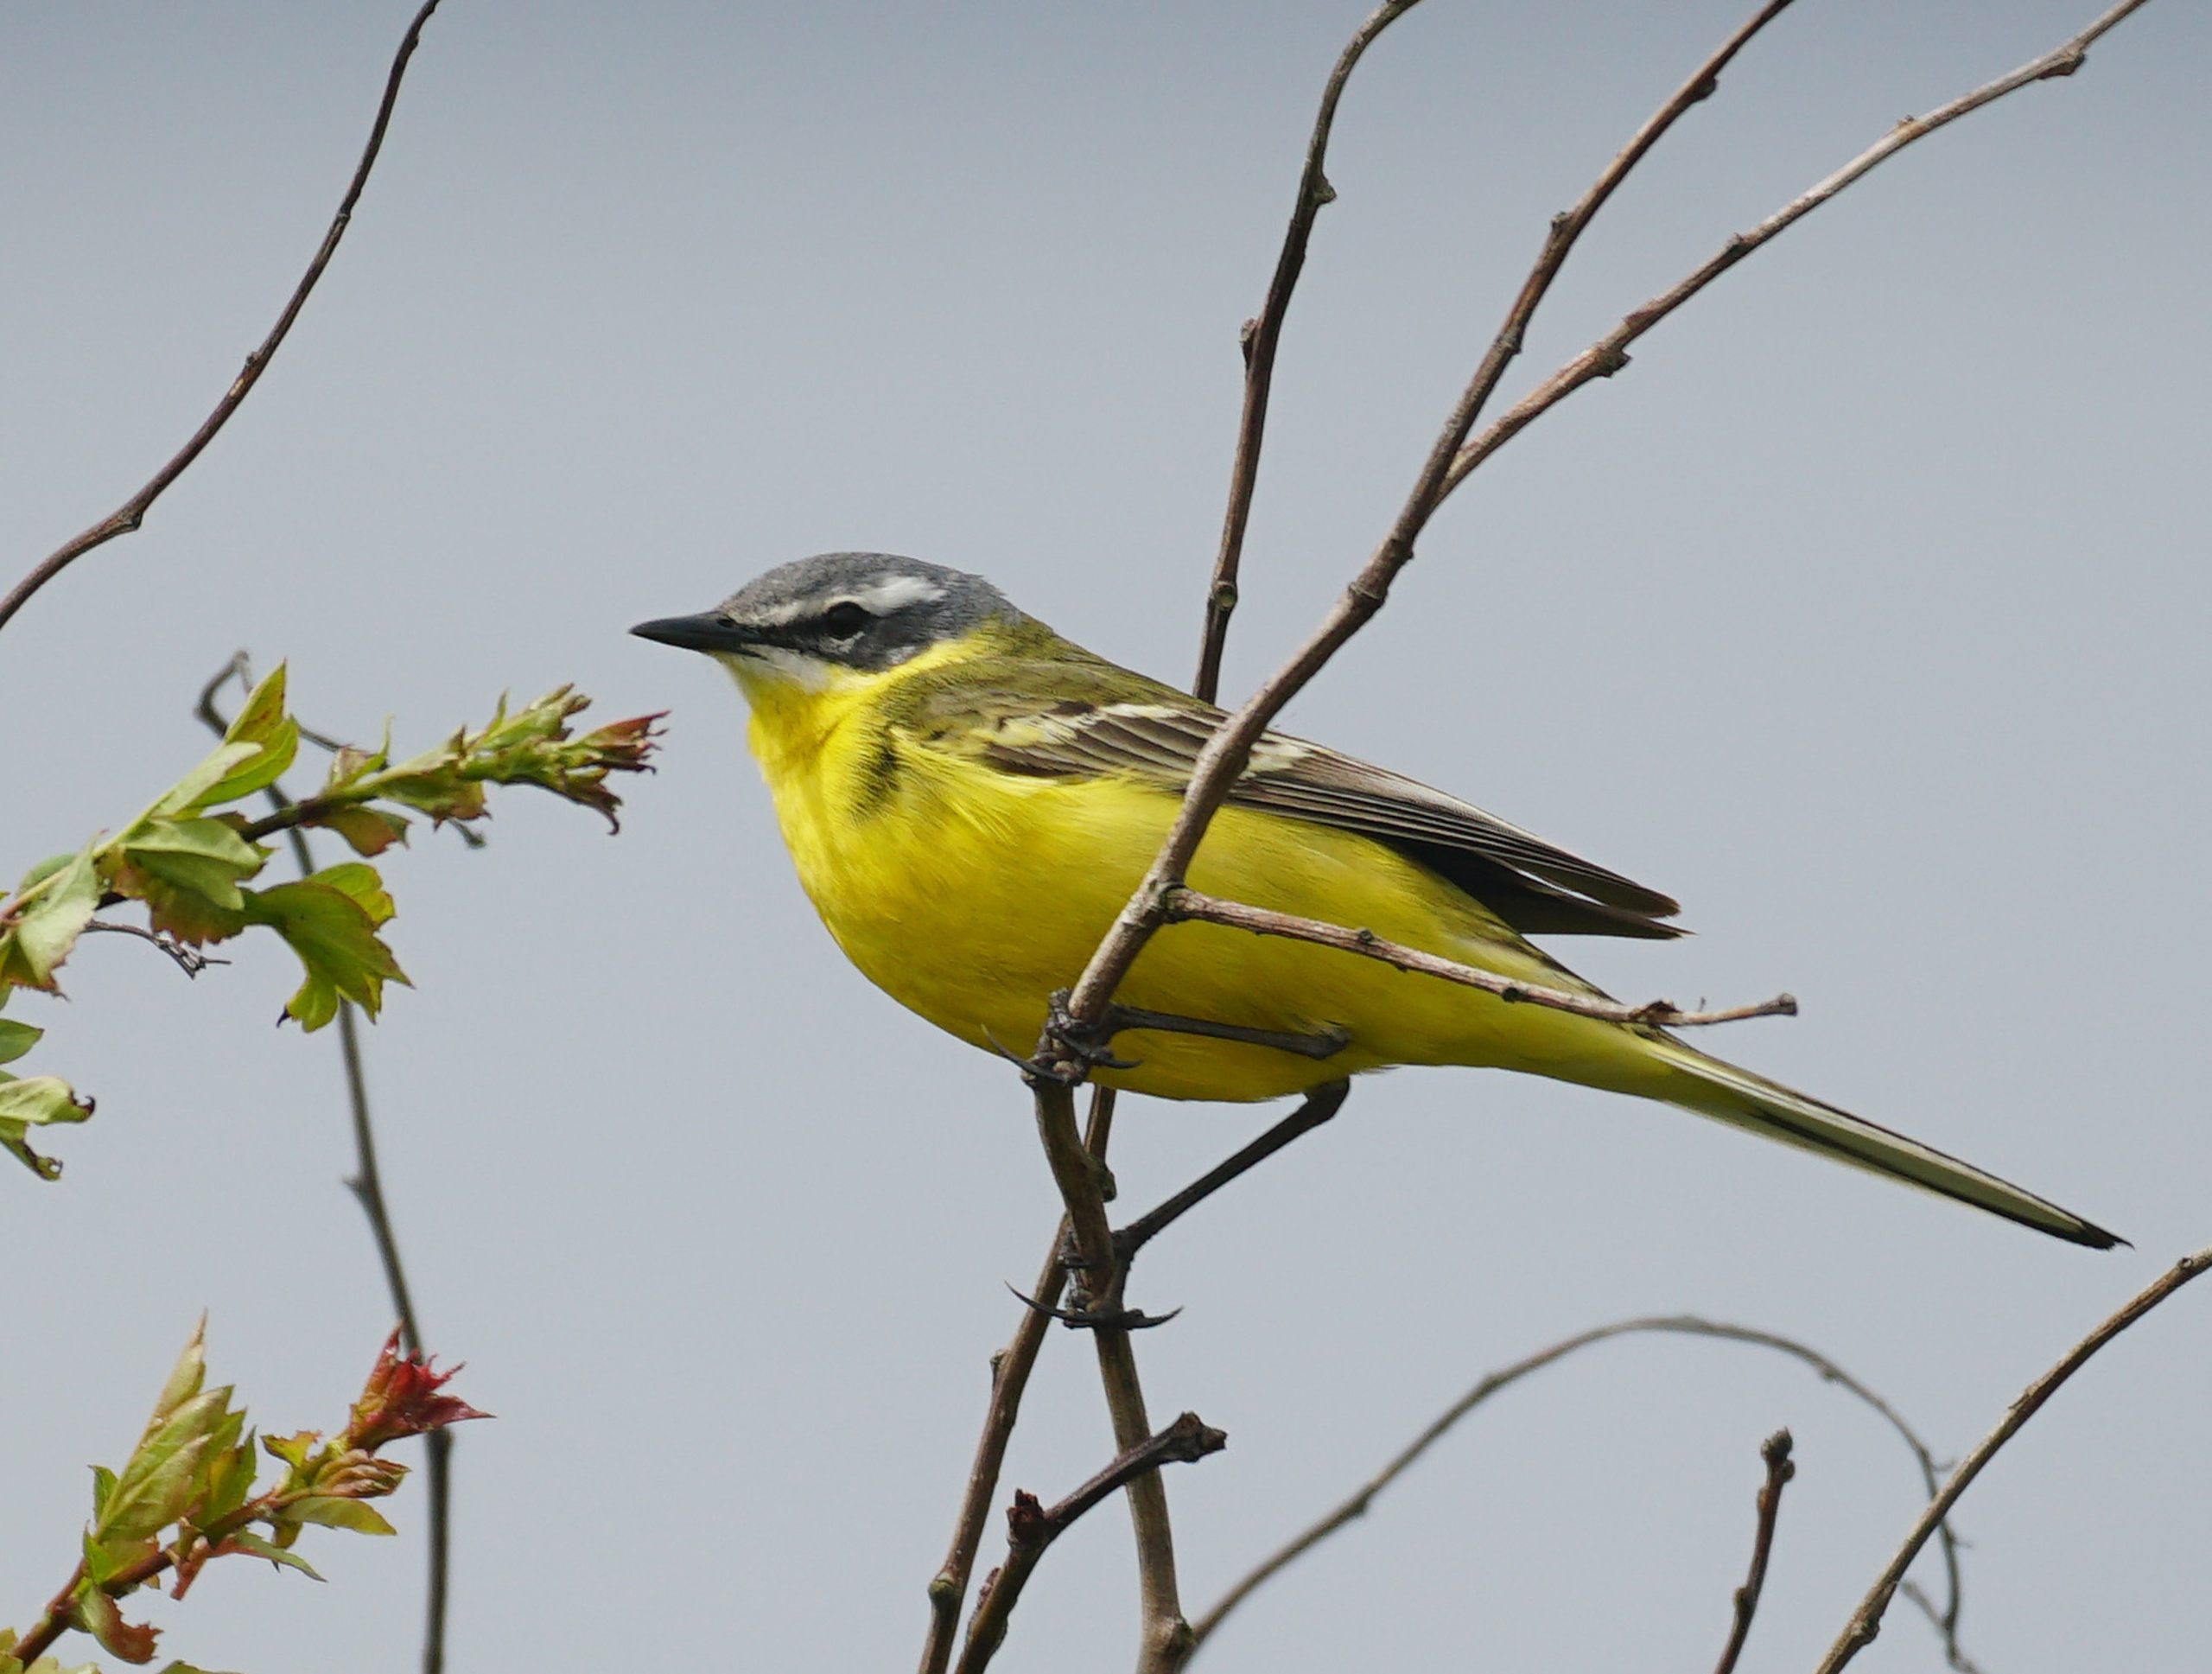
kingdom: Animalia
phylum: Chordata
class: Aves
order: Passeriformes
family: Motacillidae
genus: Motacilla
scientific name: Motacilla flava
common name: Gul vipstjert
